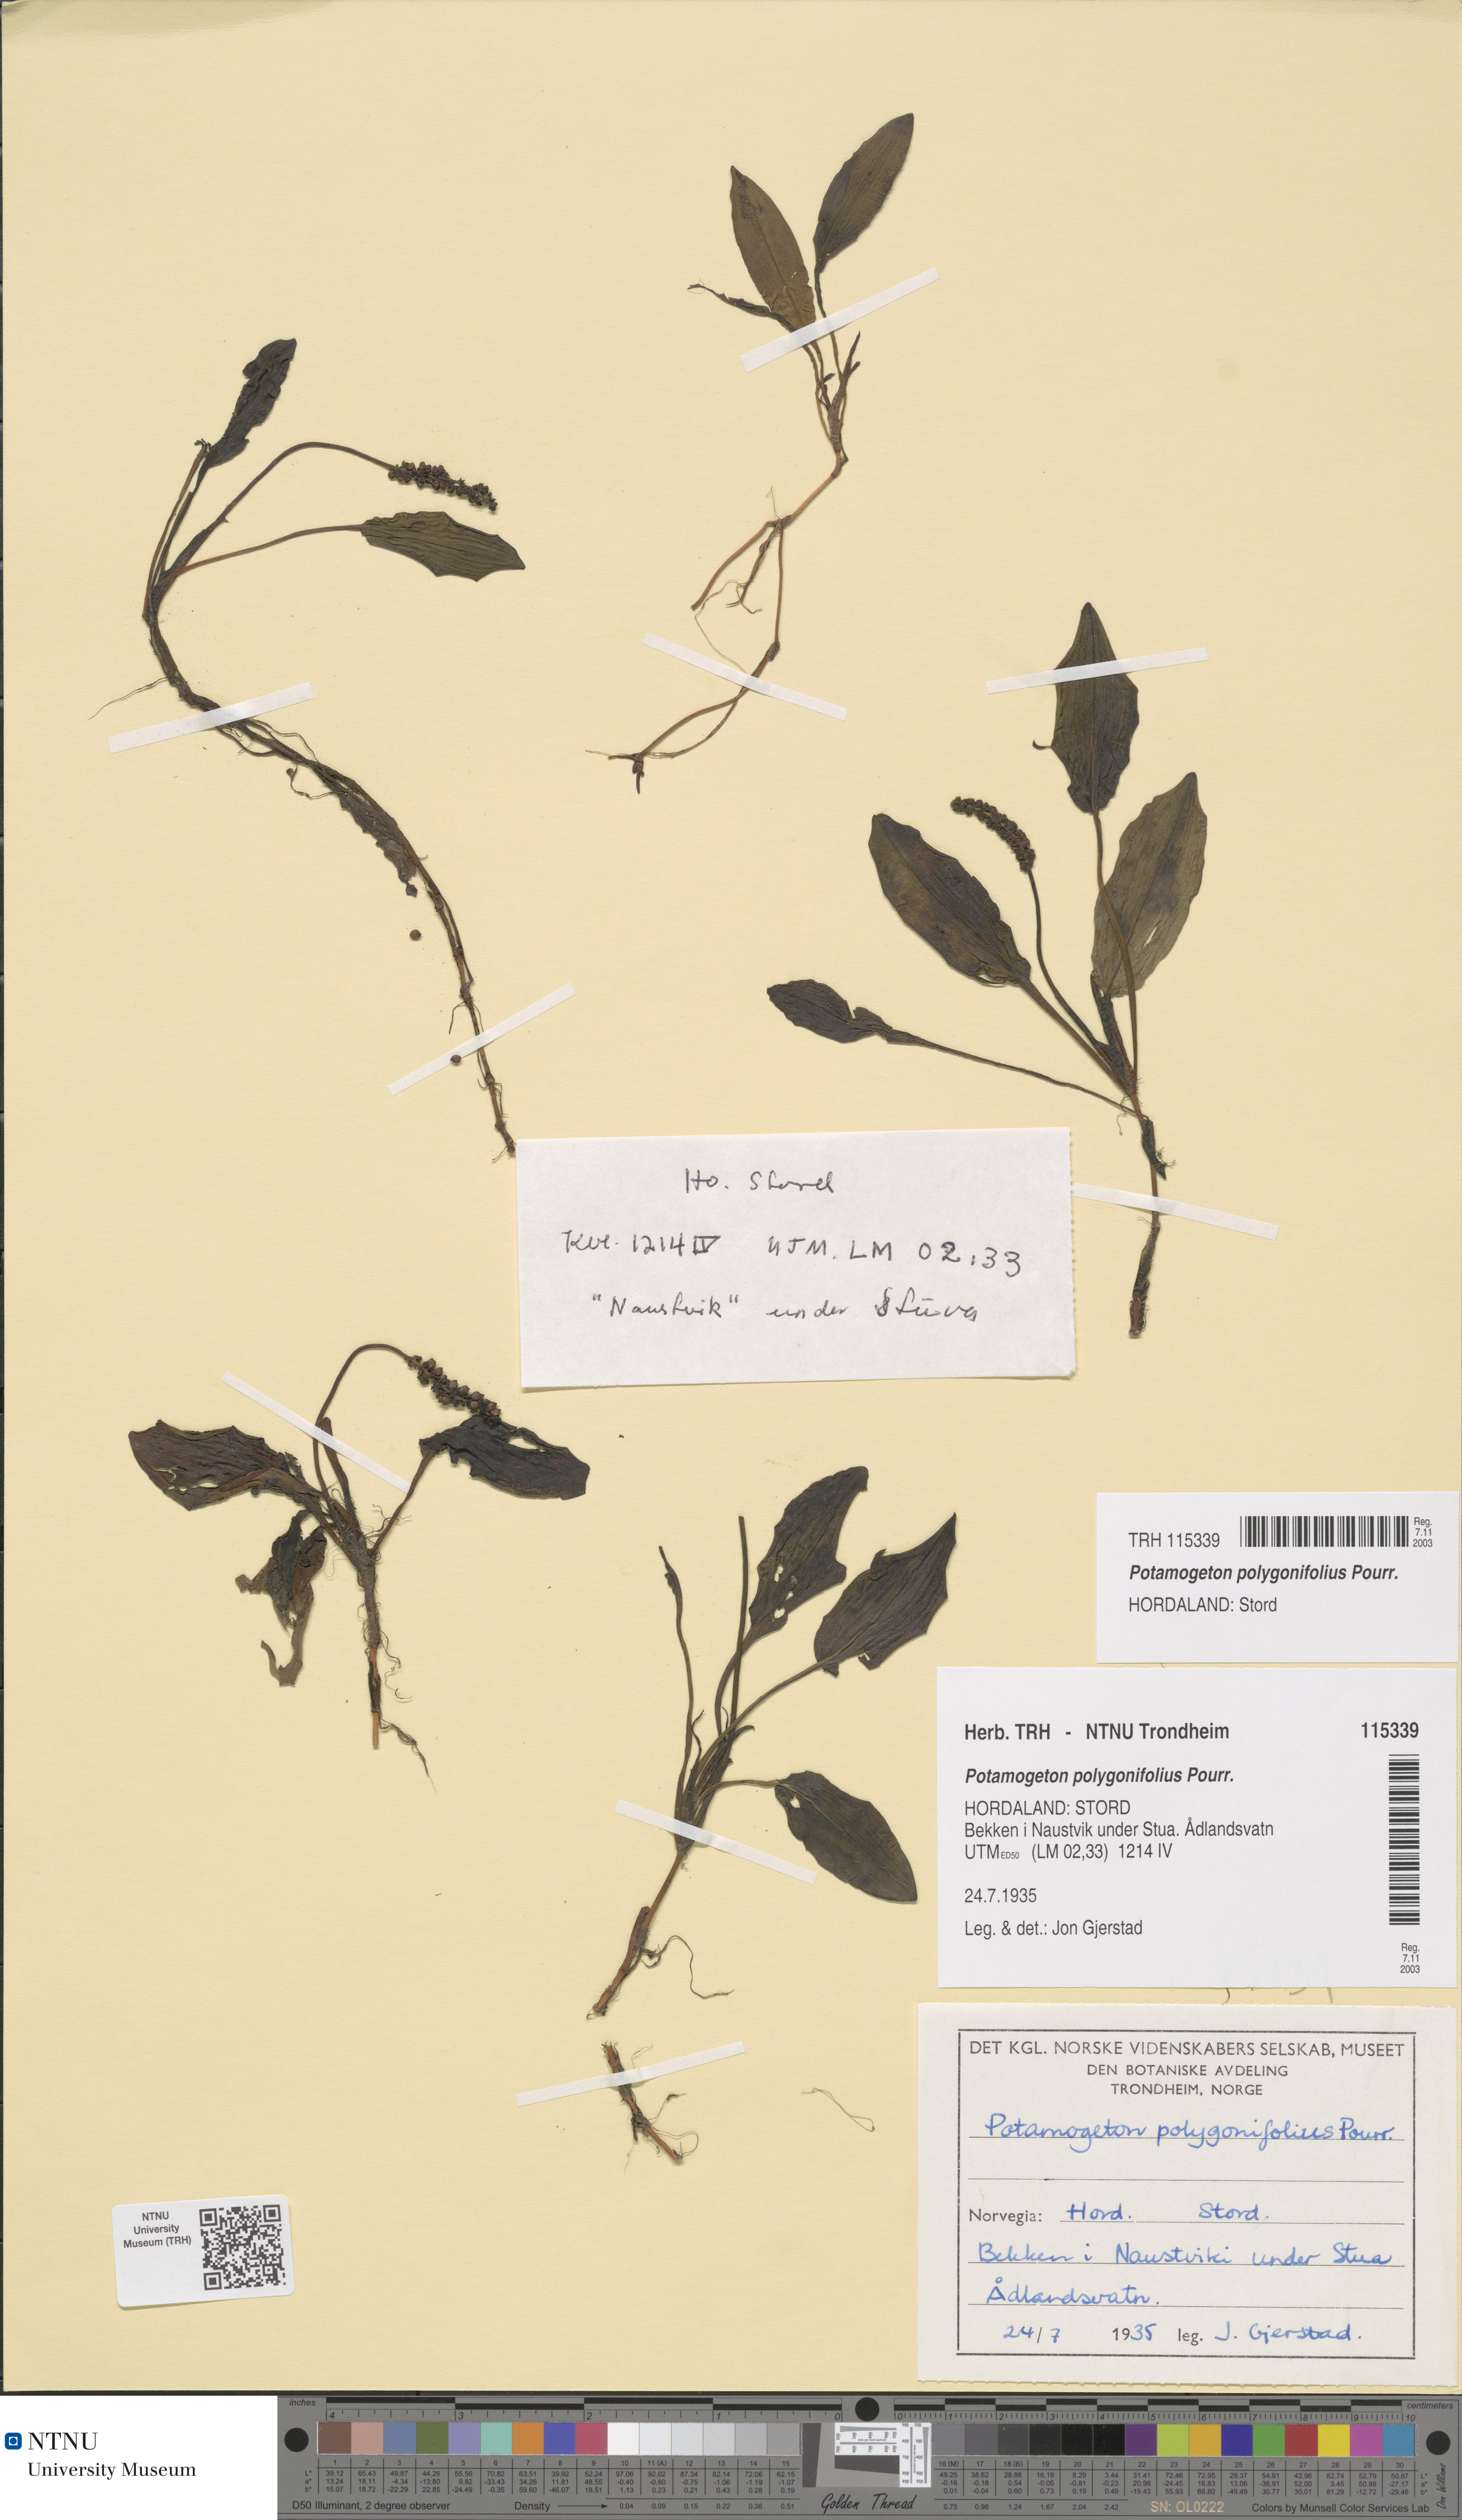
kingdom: Plantae
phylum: Tracheophyta
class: Liliopsida
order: Alismatales
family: Potamogetonaceae
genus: Potamogeton
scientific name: Potamogeton polygonifolius
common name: Bog pondweed
